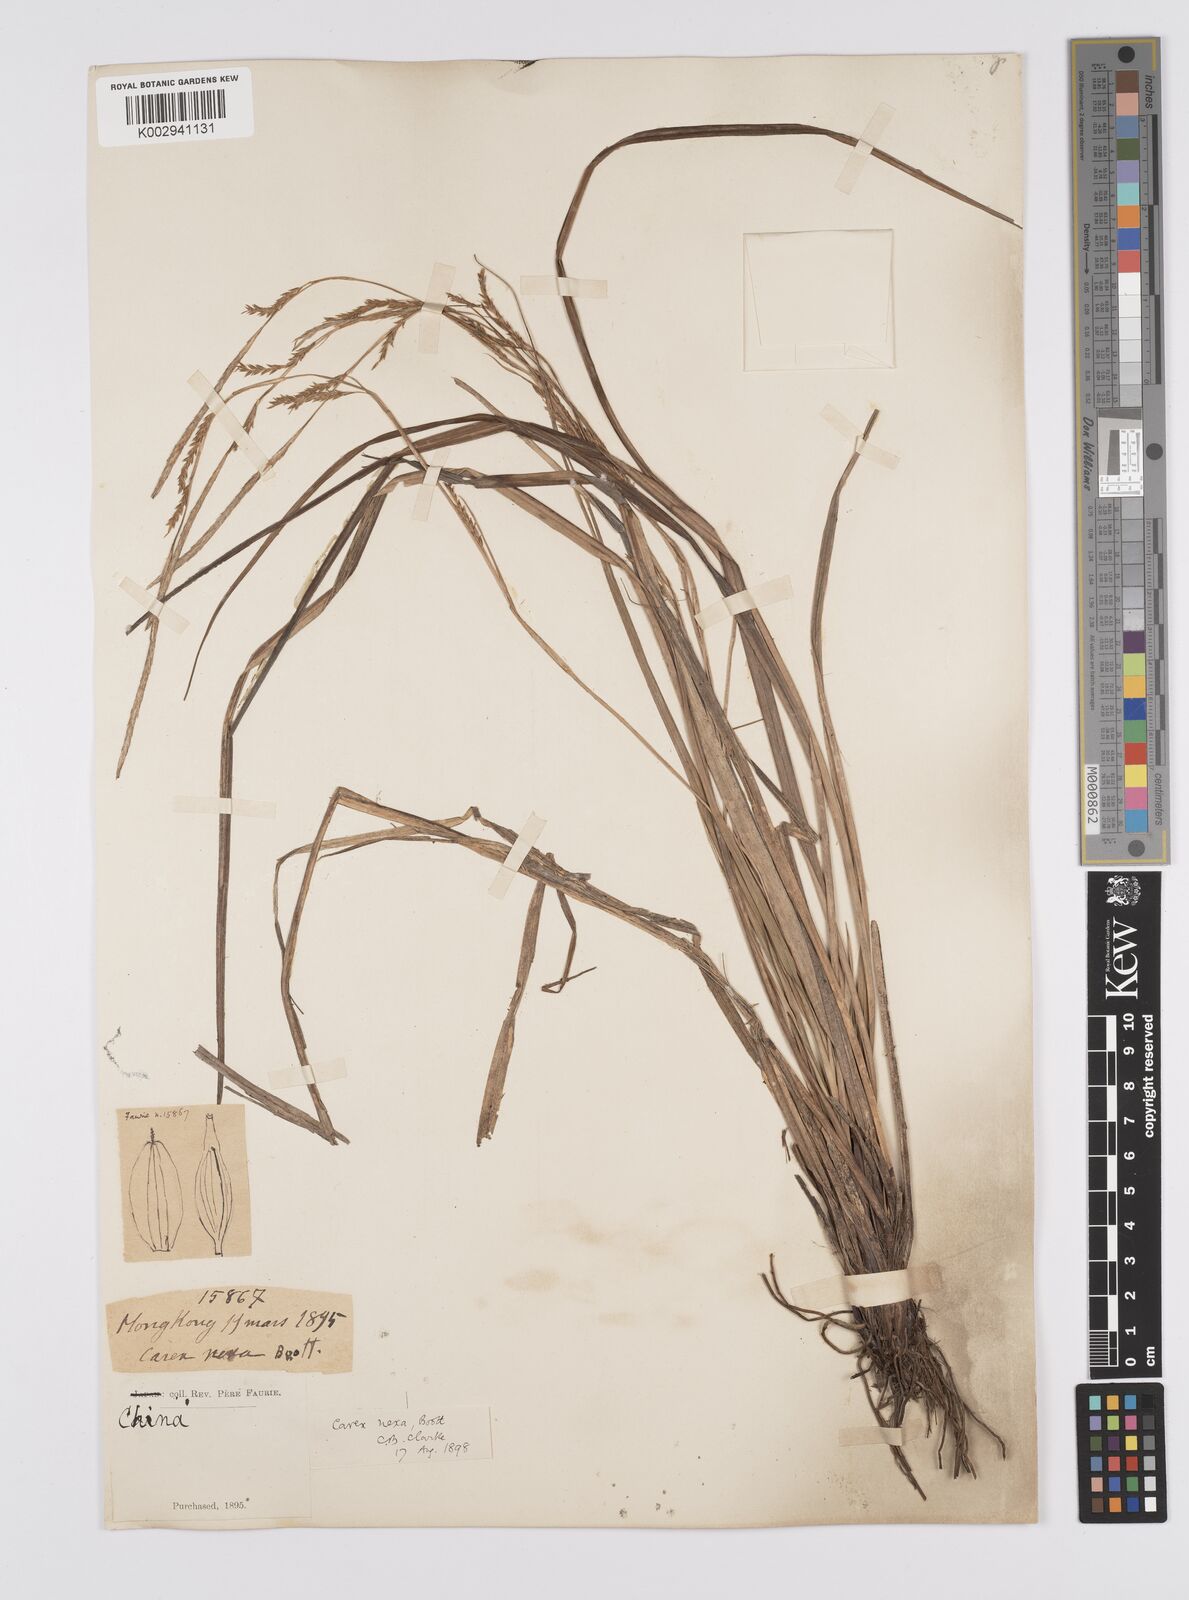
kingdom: Plantae
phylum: Tracheophyta
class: Liliopsida
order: Poales
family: Cyperaceae
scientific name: Cyperaceae
